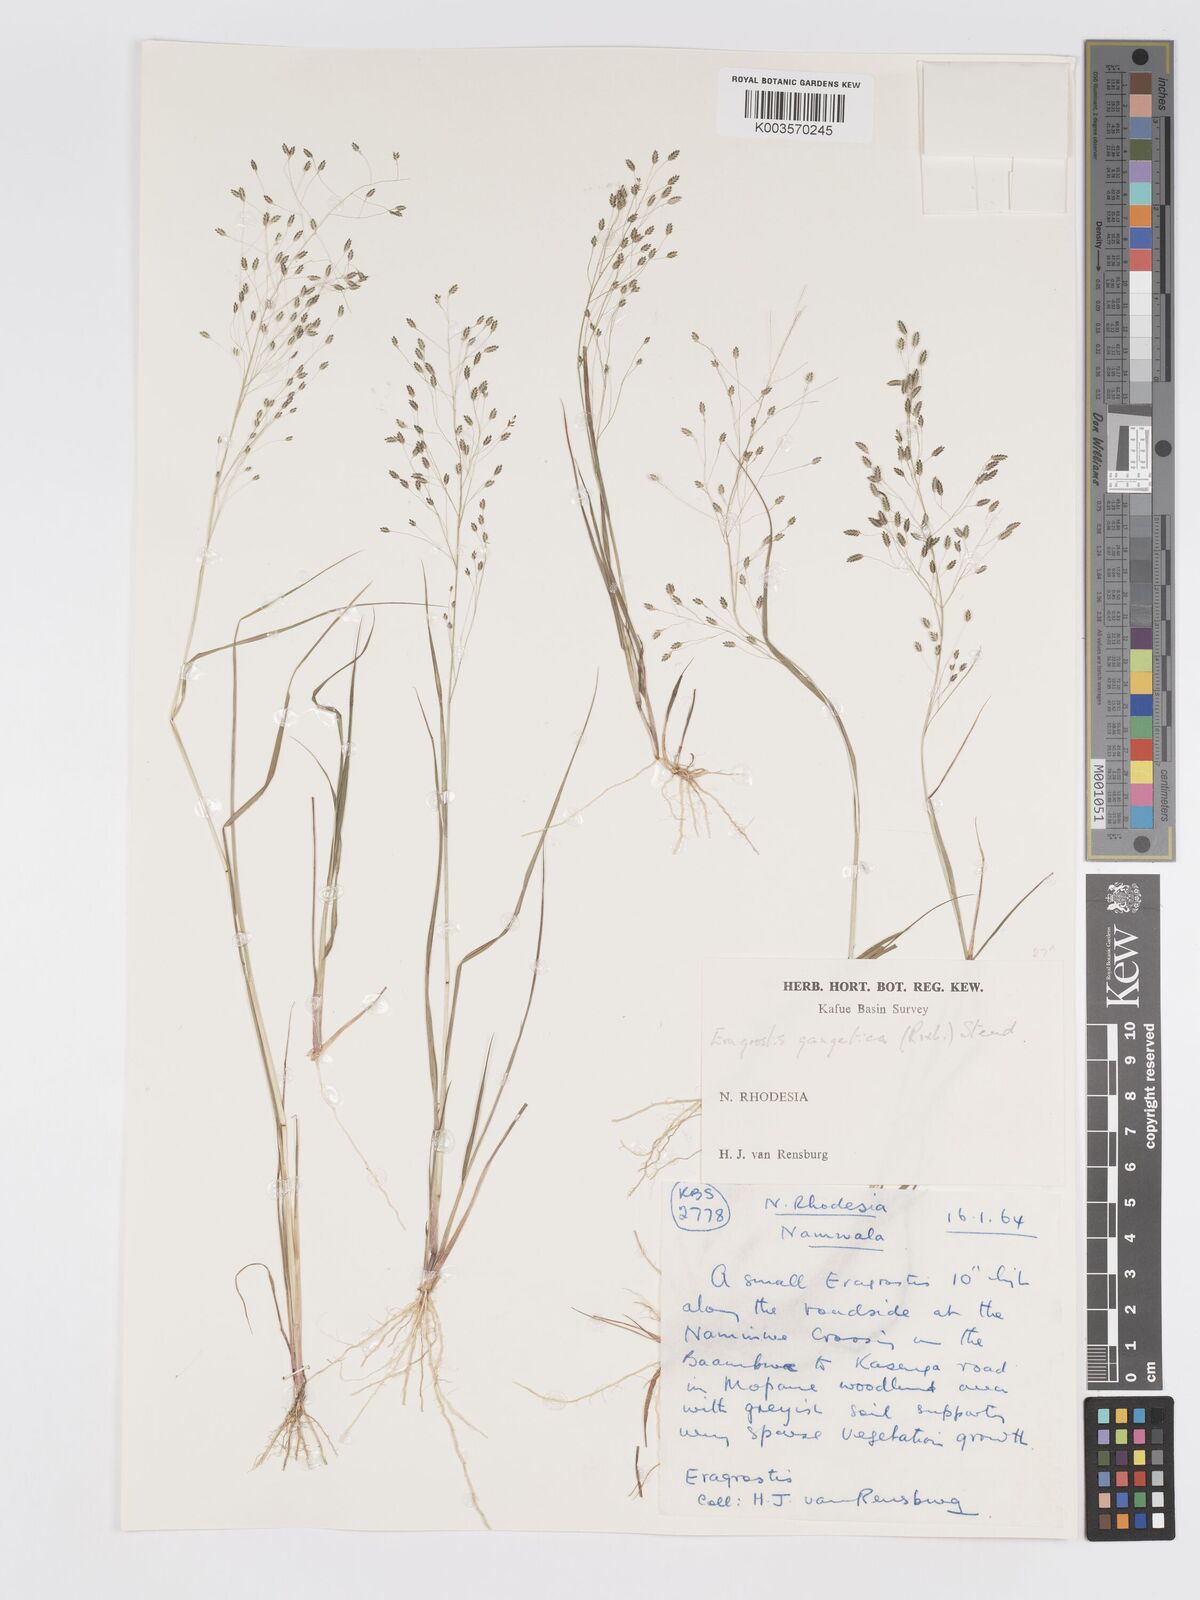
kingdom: Plantae
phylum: Tracheophyta
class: Liliopsida
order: Poales
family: Poaceae
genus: Eragrostis
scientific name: Eragrostis gangetica
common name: Slimflower lovegrass
